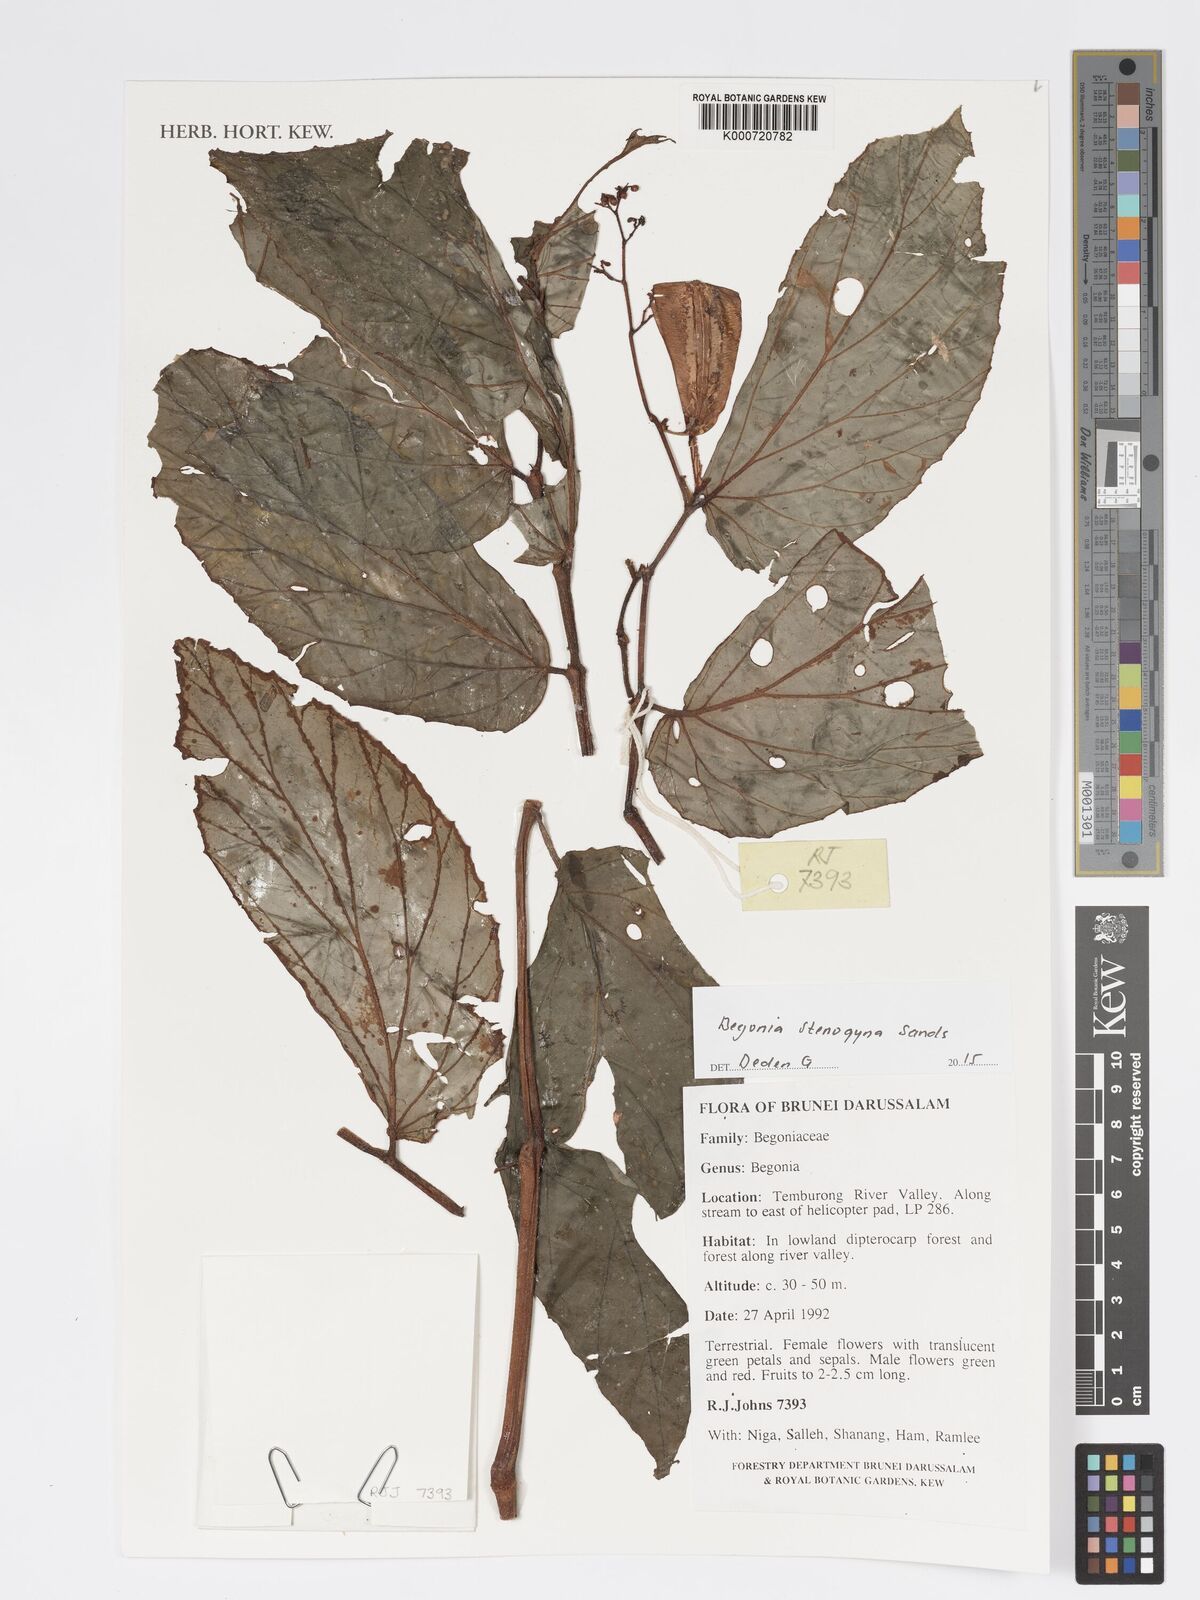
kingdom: Plantae
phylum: Tracheophyta
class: Magnoliopsida
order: Cucurbitales
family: Begoniaceae
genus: Begonia
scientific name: Begonia stenogyna
